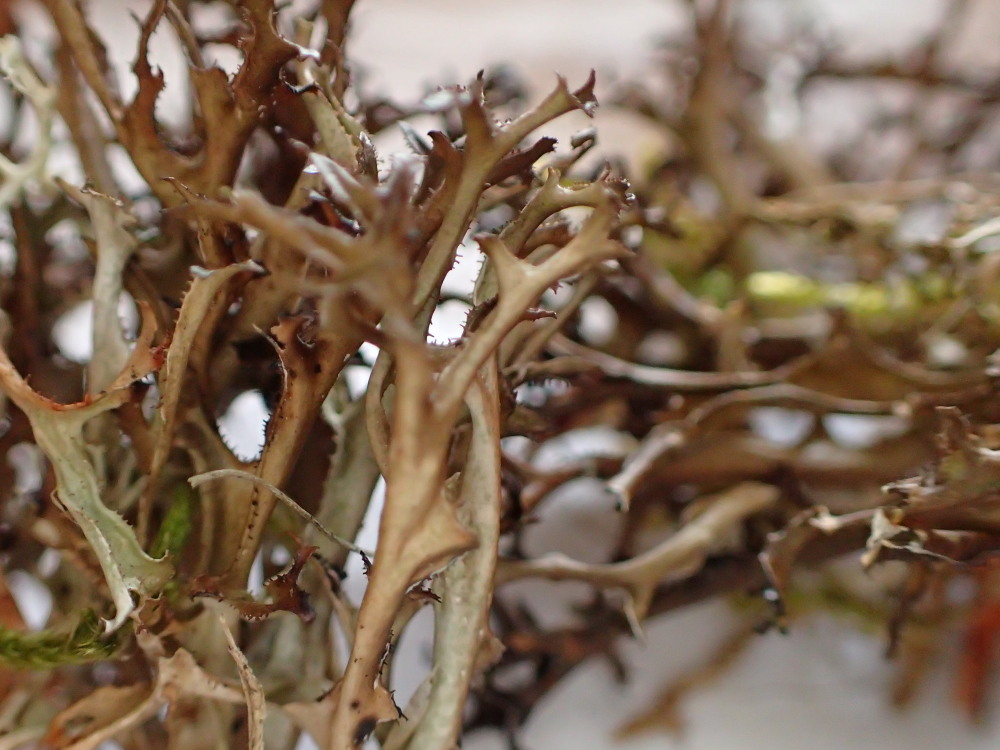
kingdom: Fungi
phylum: Ascomycota
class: Lecanoromycetes
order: Lecanorales
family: Parmeliaceae
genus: Cetraria
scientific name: Cetraria islandica
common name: islandsk kruslav
